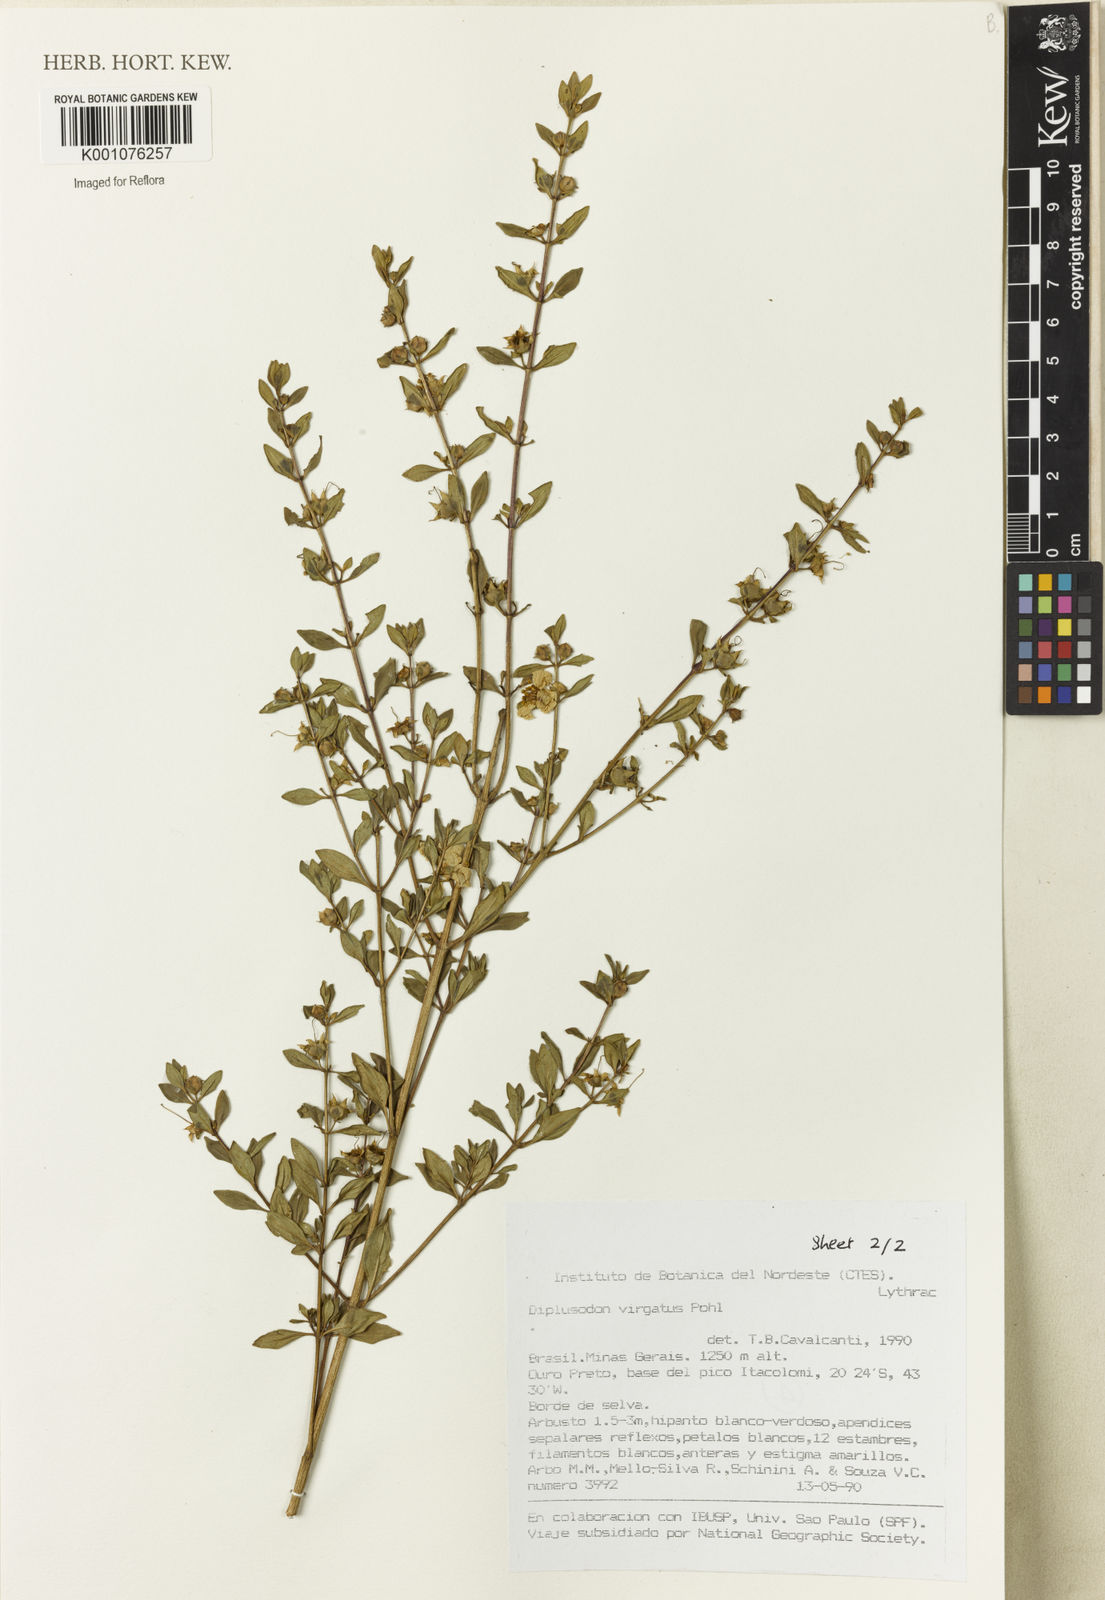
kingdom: Plantae
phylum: Tracheophyta
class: Magnoliopsida
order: Myrtales
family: Lythraceae
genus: Diplusodon
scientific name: Diplusodon virgatus
